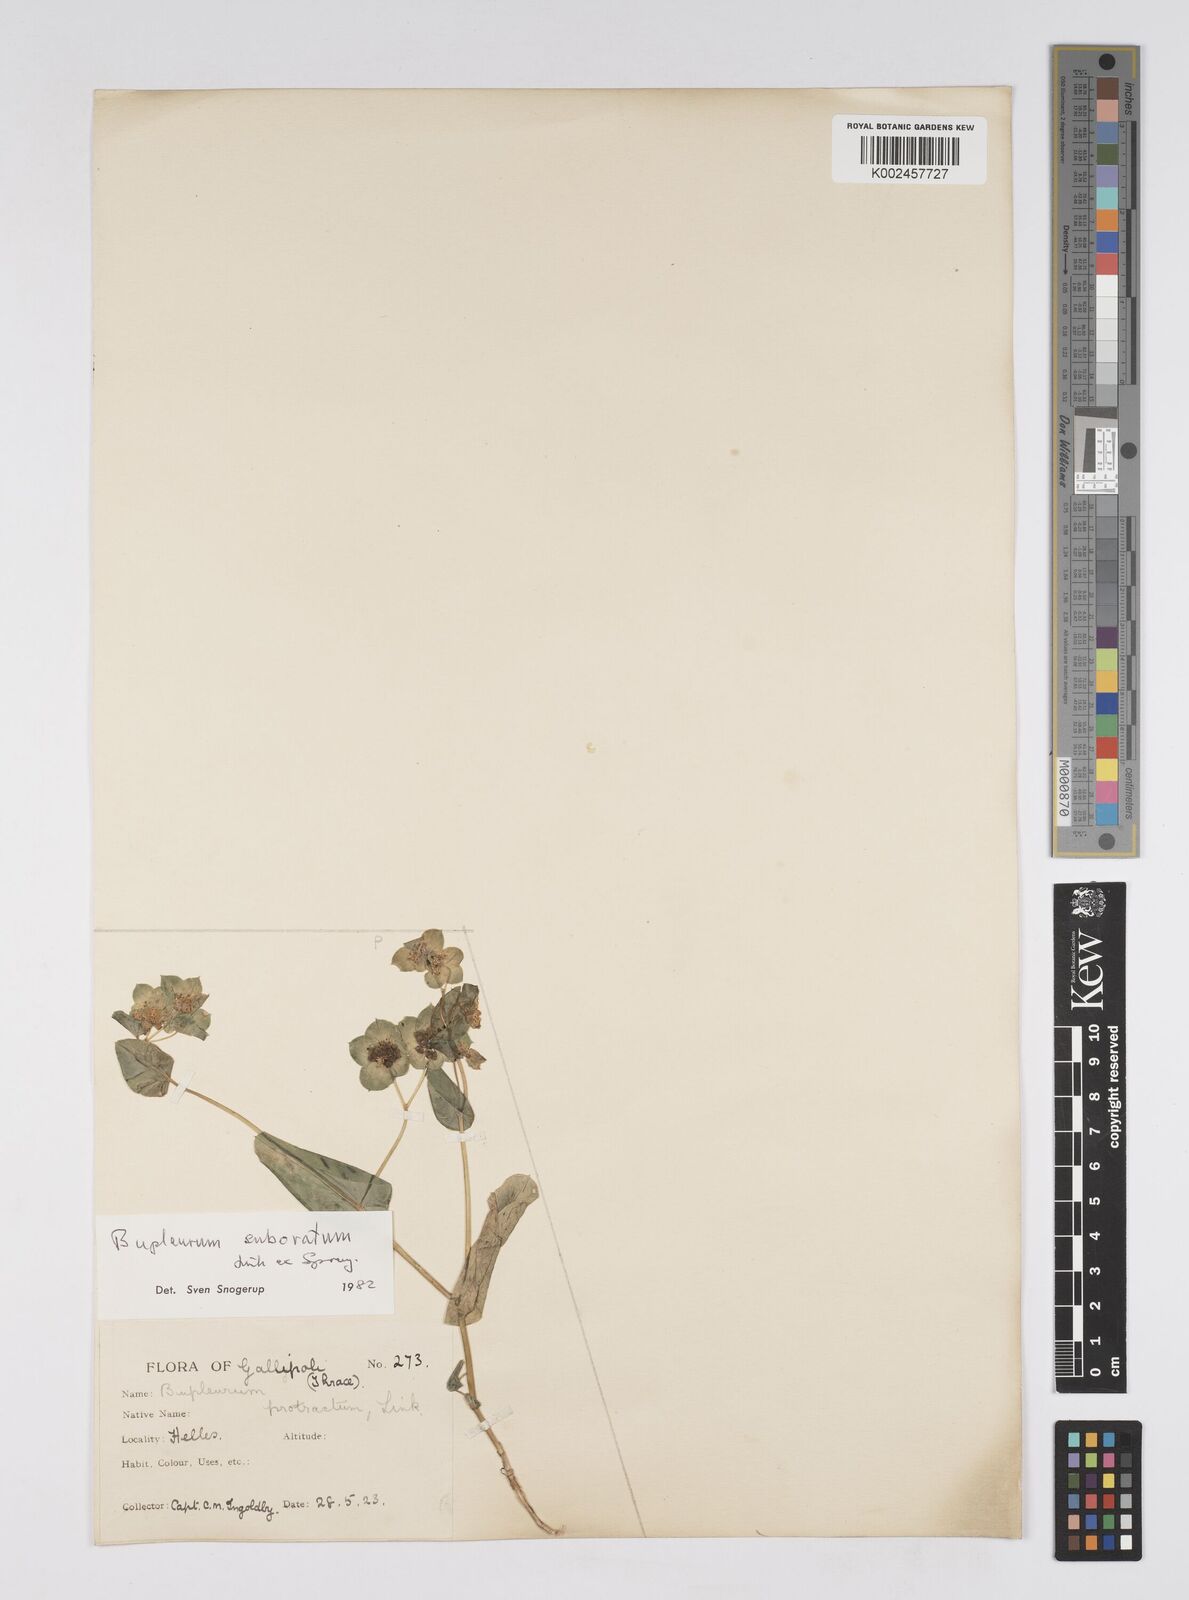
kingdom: Plantae
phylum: Tracheophyta
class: Magnoliopsida
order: Apiales
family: Apiaceae
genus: Bupleurum
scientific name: Bupleurum subovatum
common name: False thorow-wax
